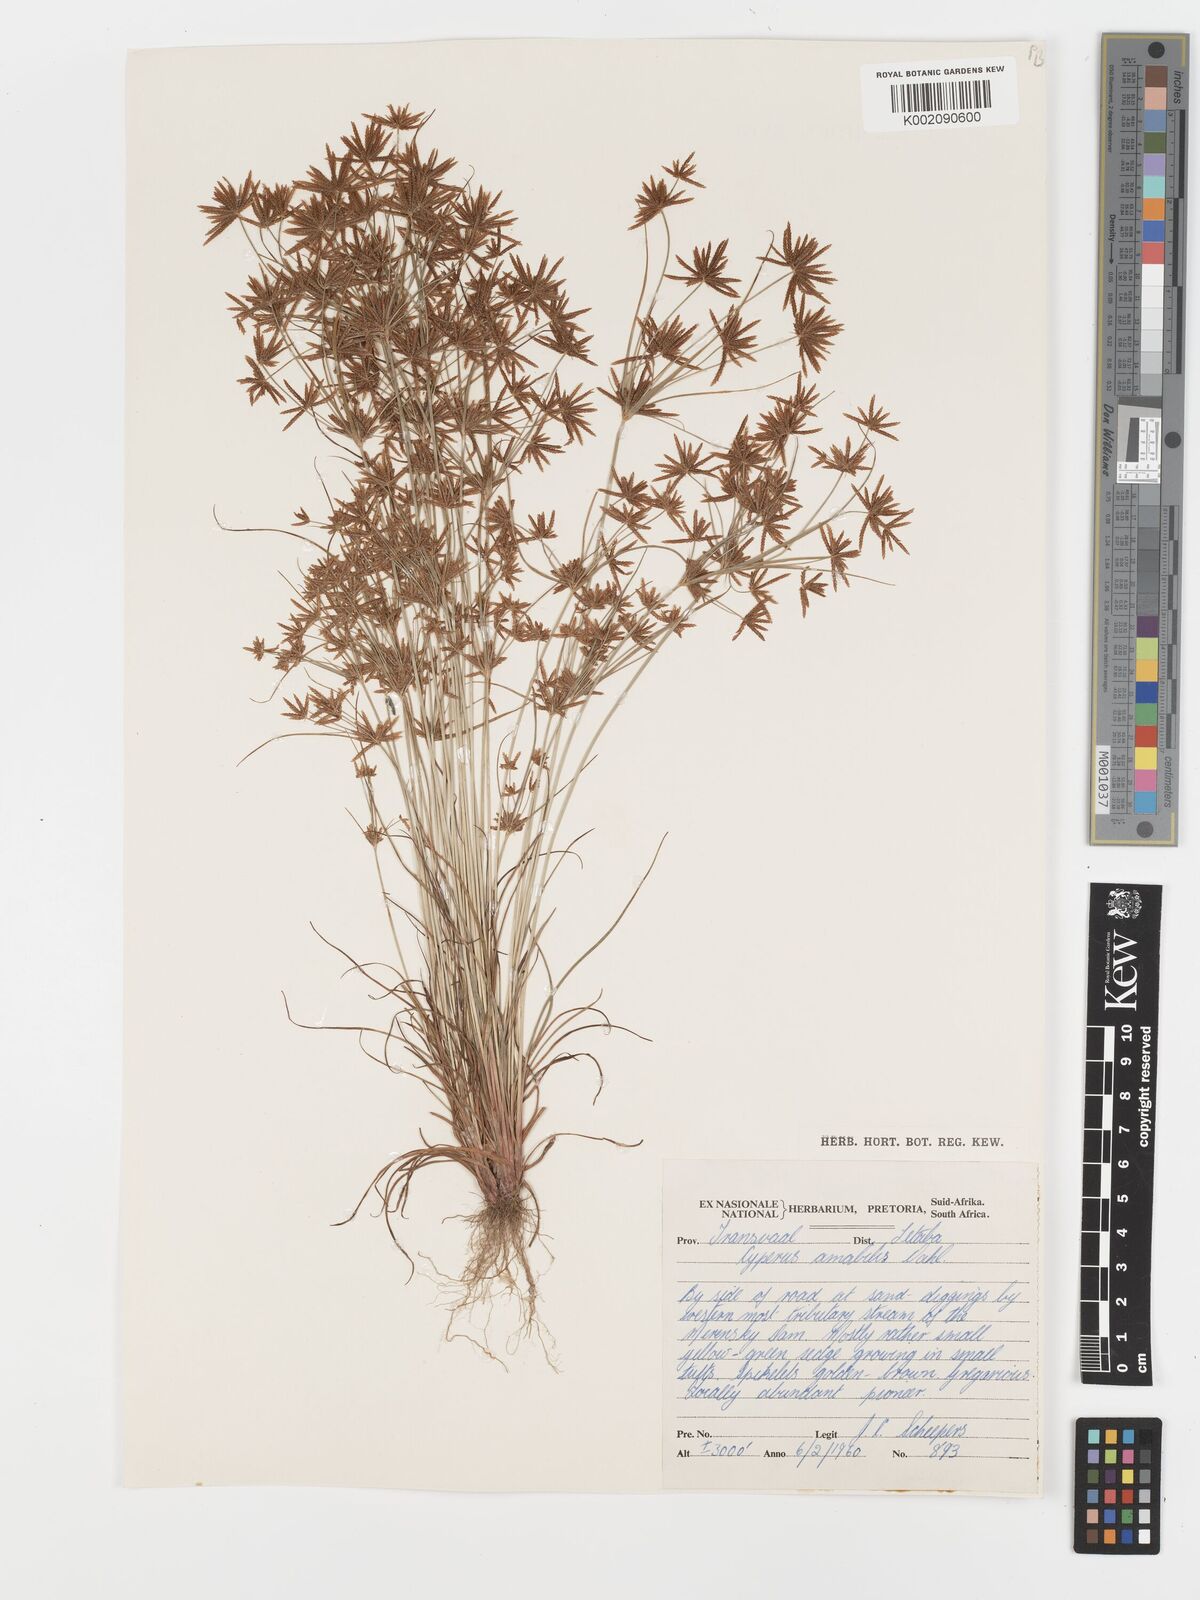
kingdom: Plantae
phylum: Tracheophyta
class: Liliopsida
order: Poales
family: Cyperaceae
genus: Cyperus
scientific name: Cyperus amabilis
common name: Foothill flat sedge
